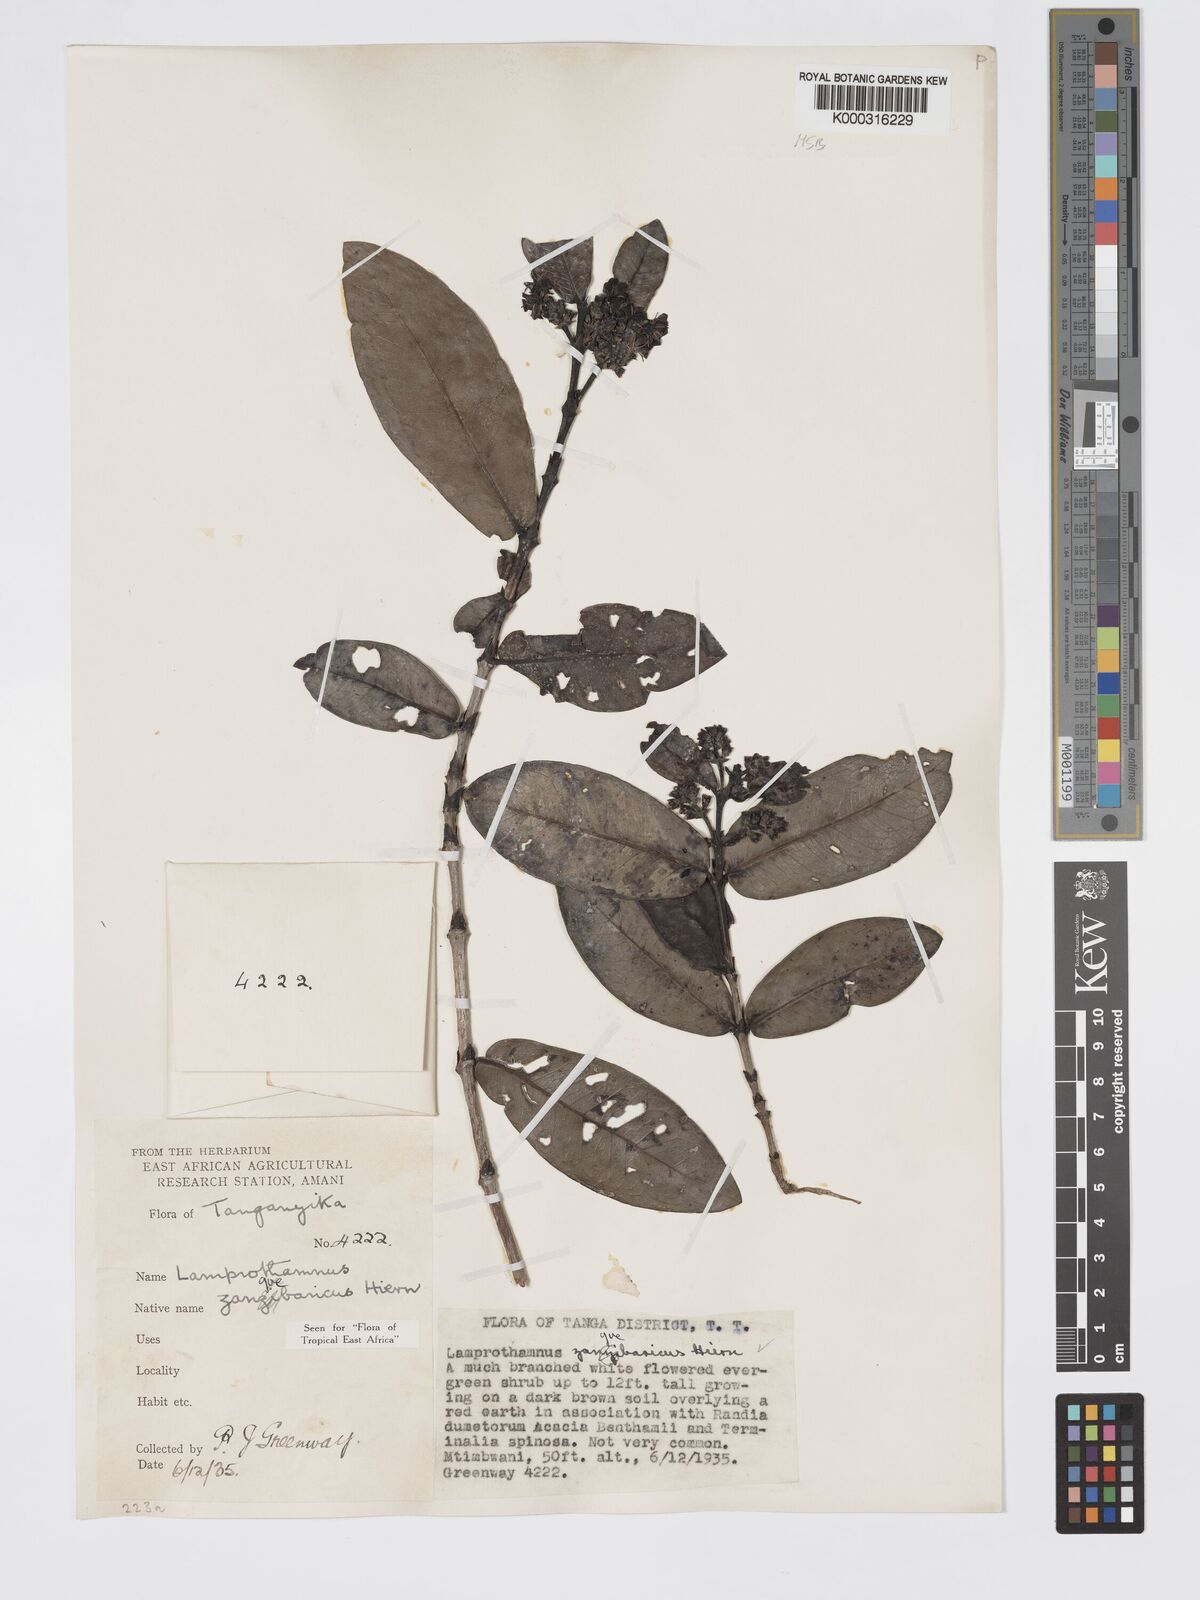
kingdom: Plantae
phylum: Tracheophyta
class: Magnoliopsida
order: Gentianales
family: Rubiaceae
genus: Lamprothamnus
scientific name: Lamprothamnus zanguebaricus
